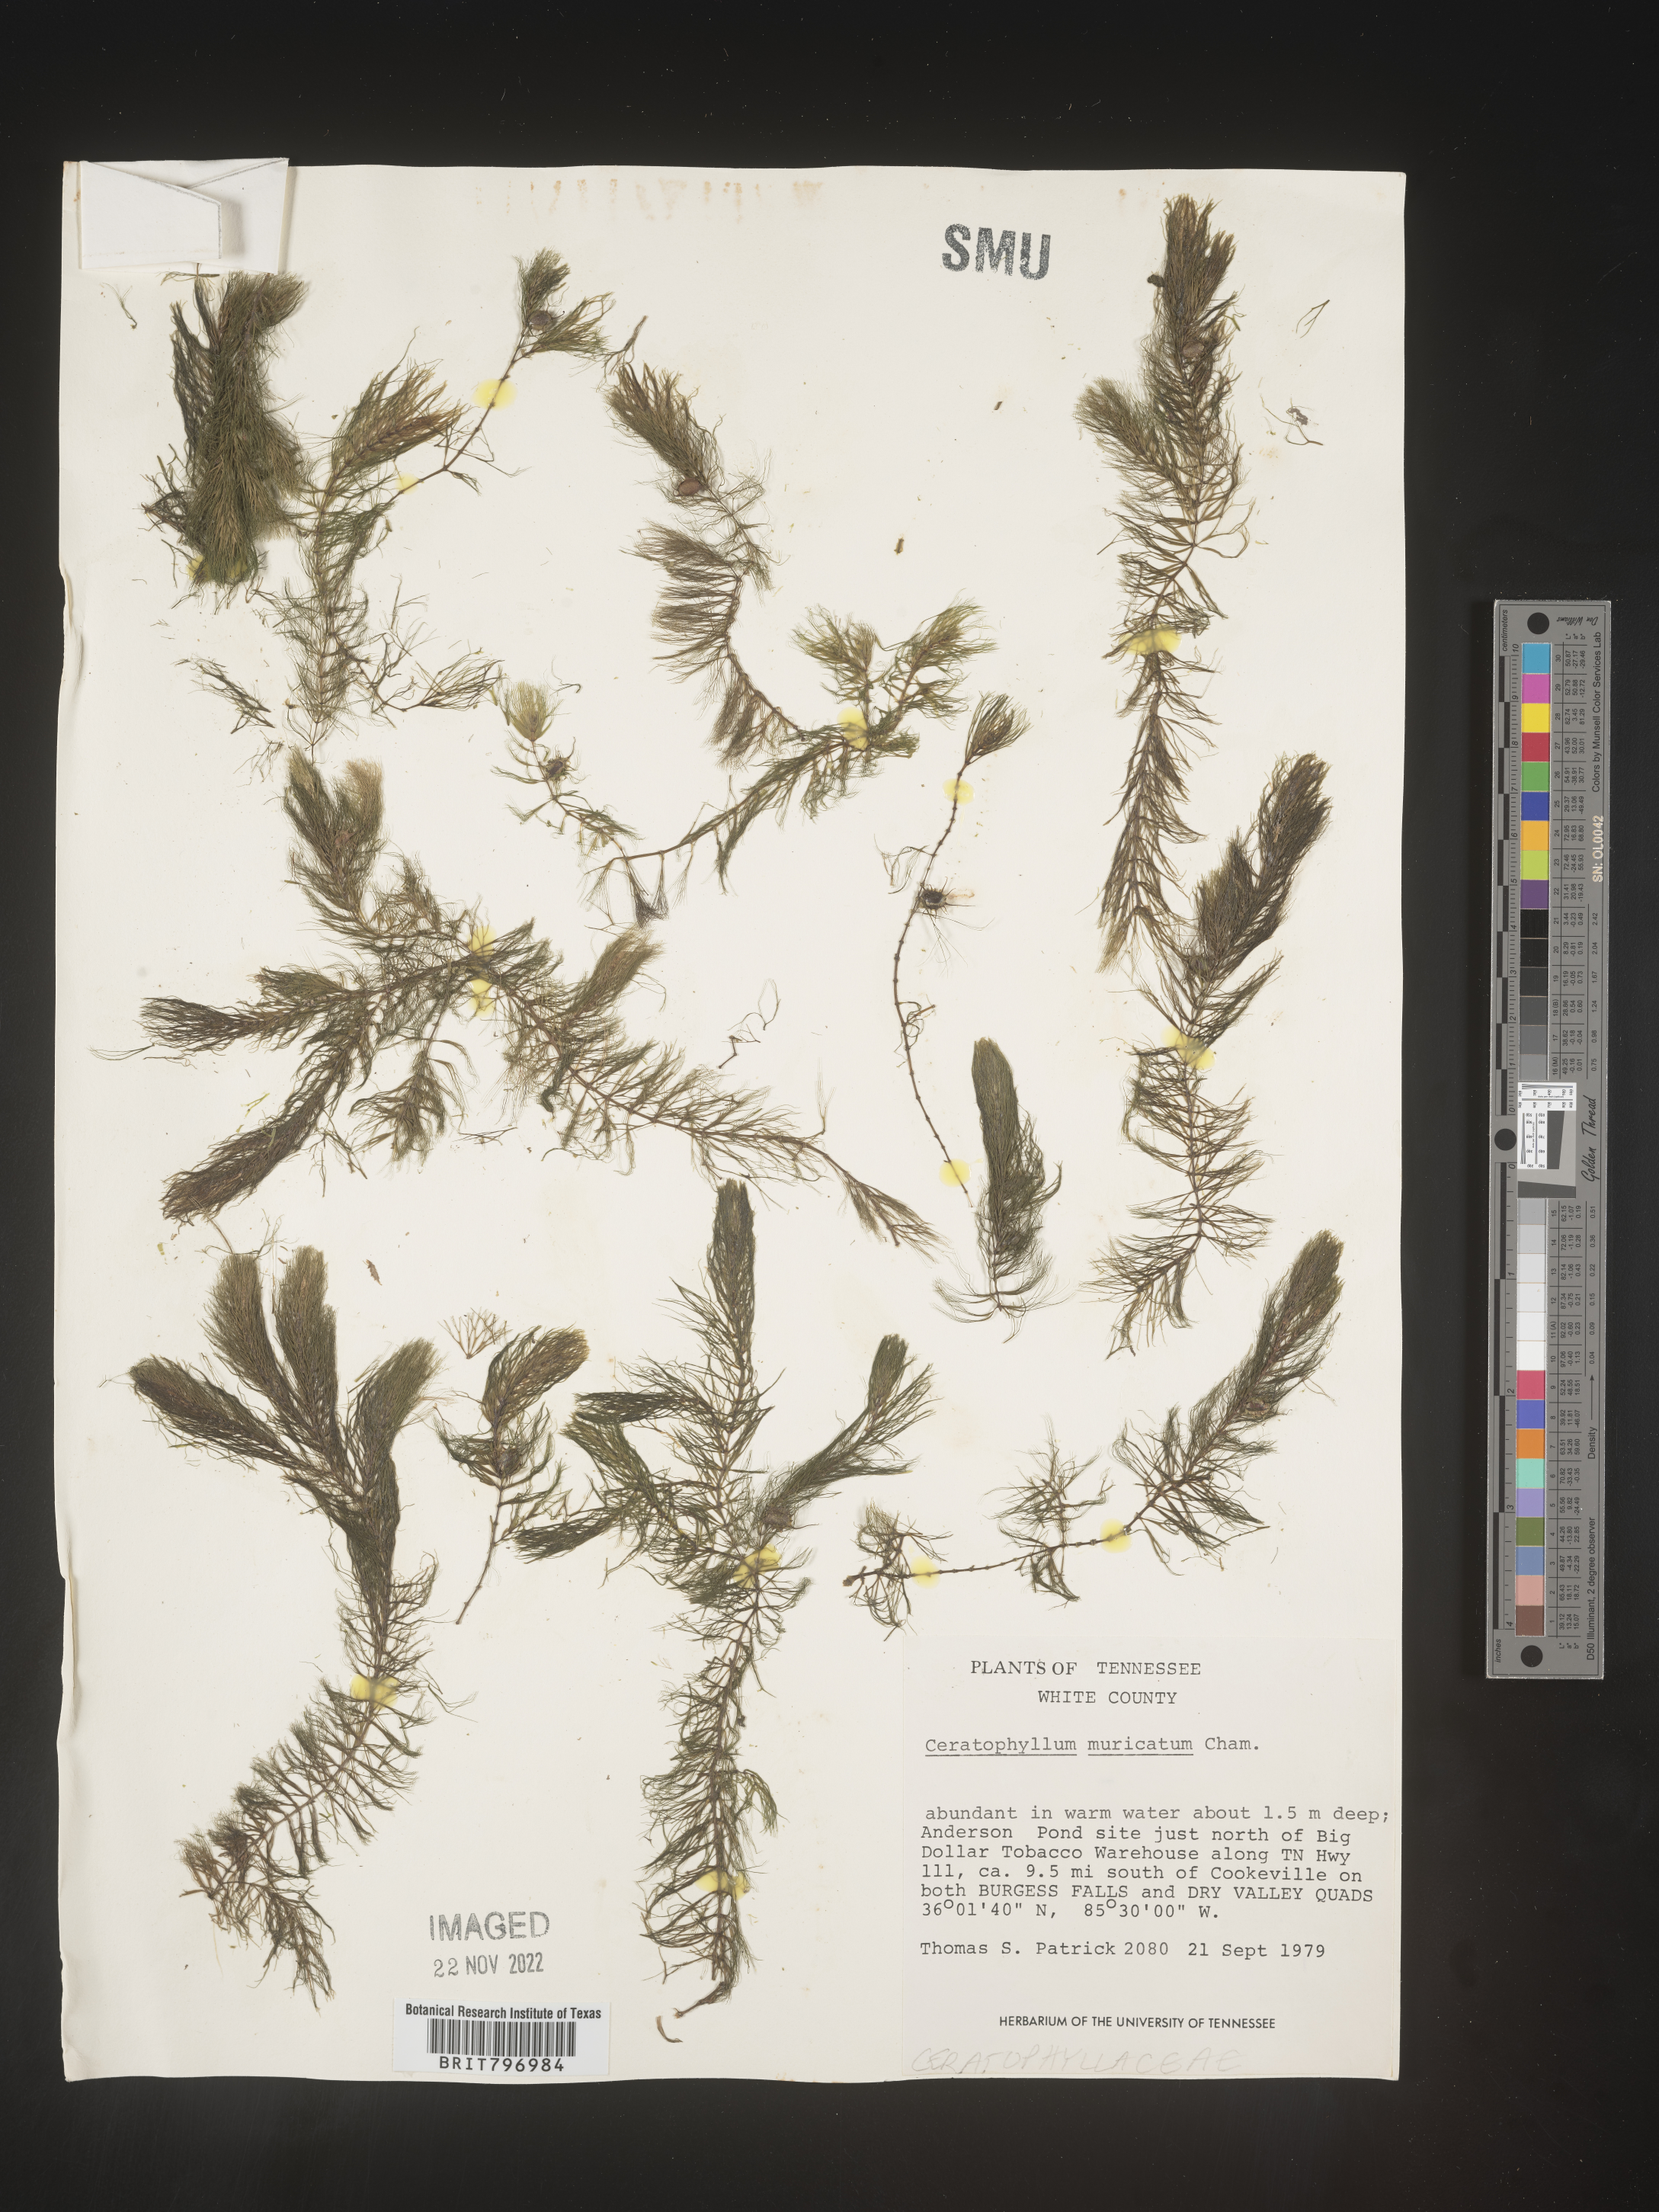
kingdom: Plantae
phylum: Tracheophyta
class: Magnoliopsida
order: Ceratophyllales
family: Ceratophyllaceae
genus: Ceratophyllum
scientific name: Ceratophyllum demersum
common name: Rigid hornwort
